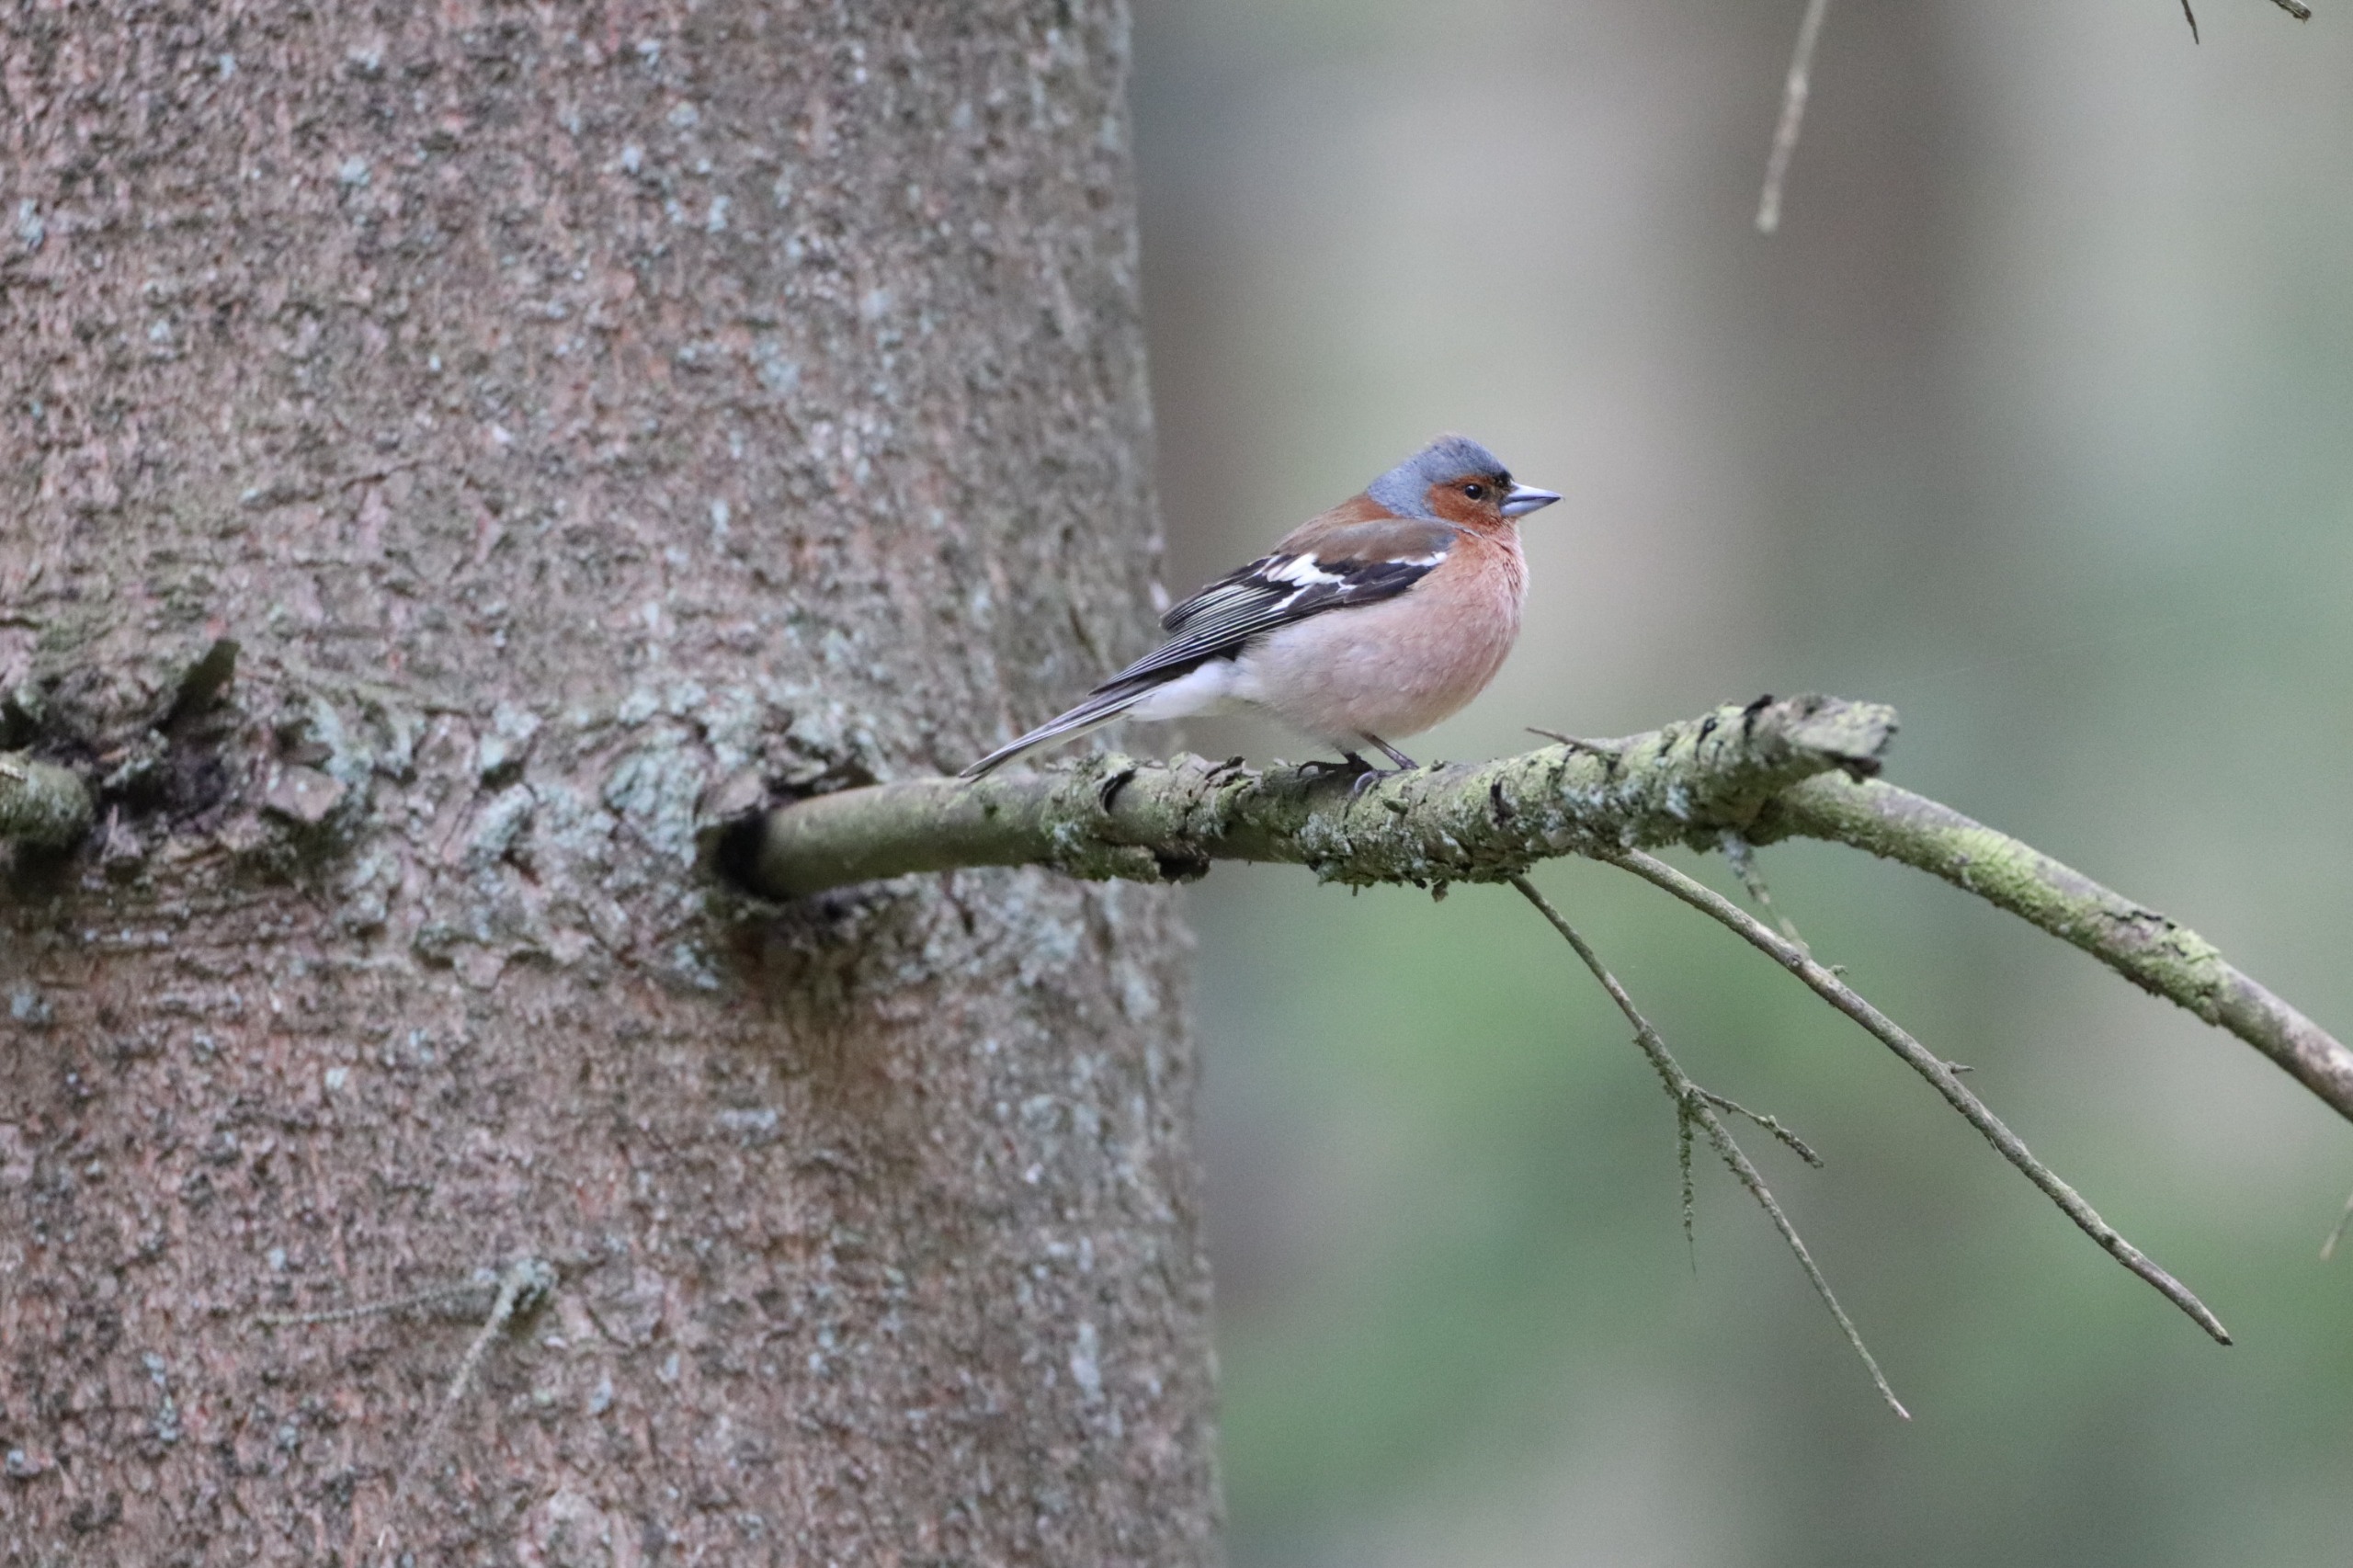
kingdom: Animalia
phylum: Chordata
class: Aves
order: Passeriformes
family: Fringillidae
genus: Fringilla
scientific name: Fringilla coelebs
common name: Bogfinke
